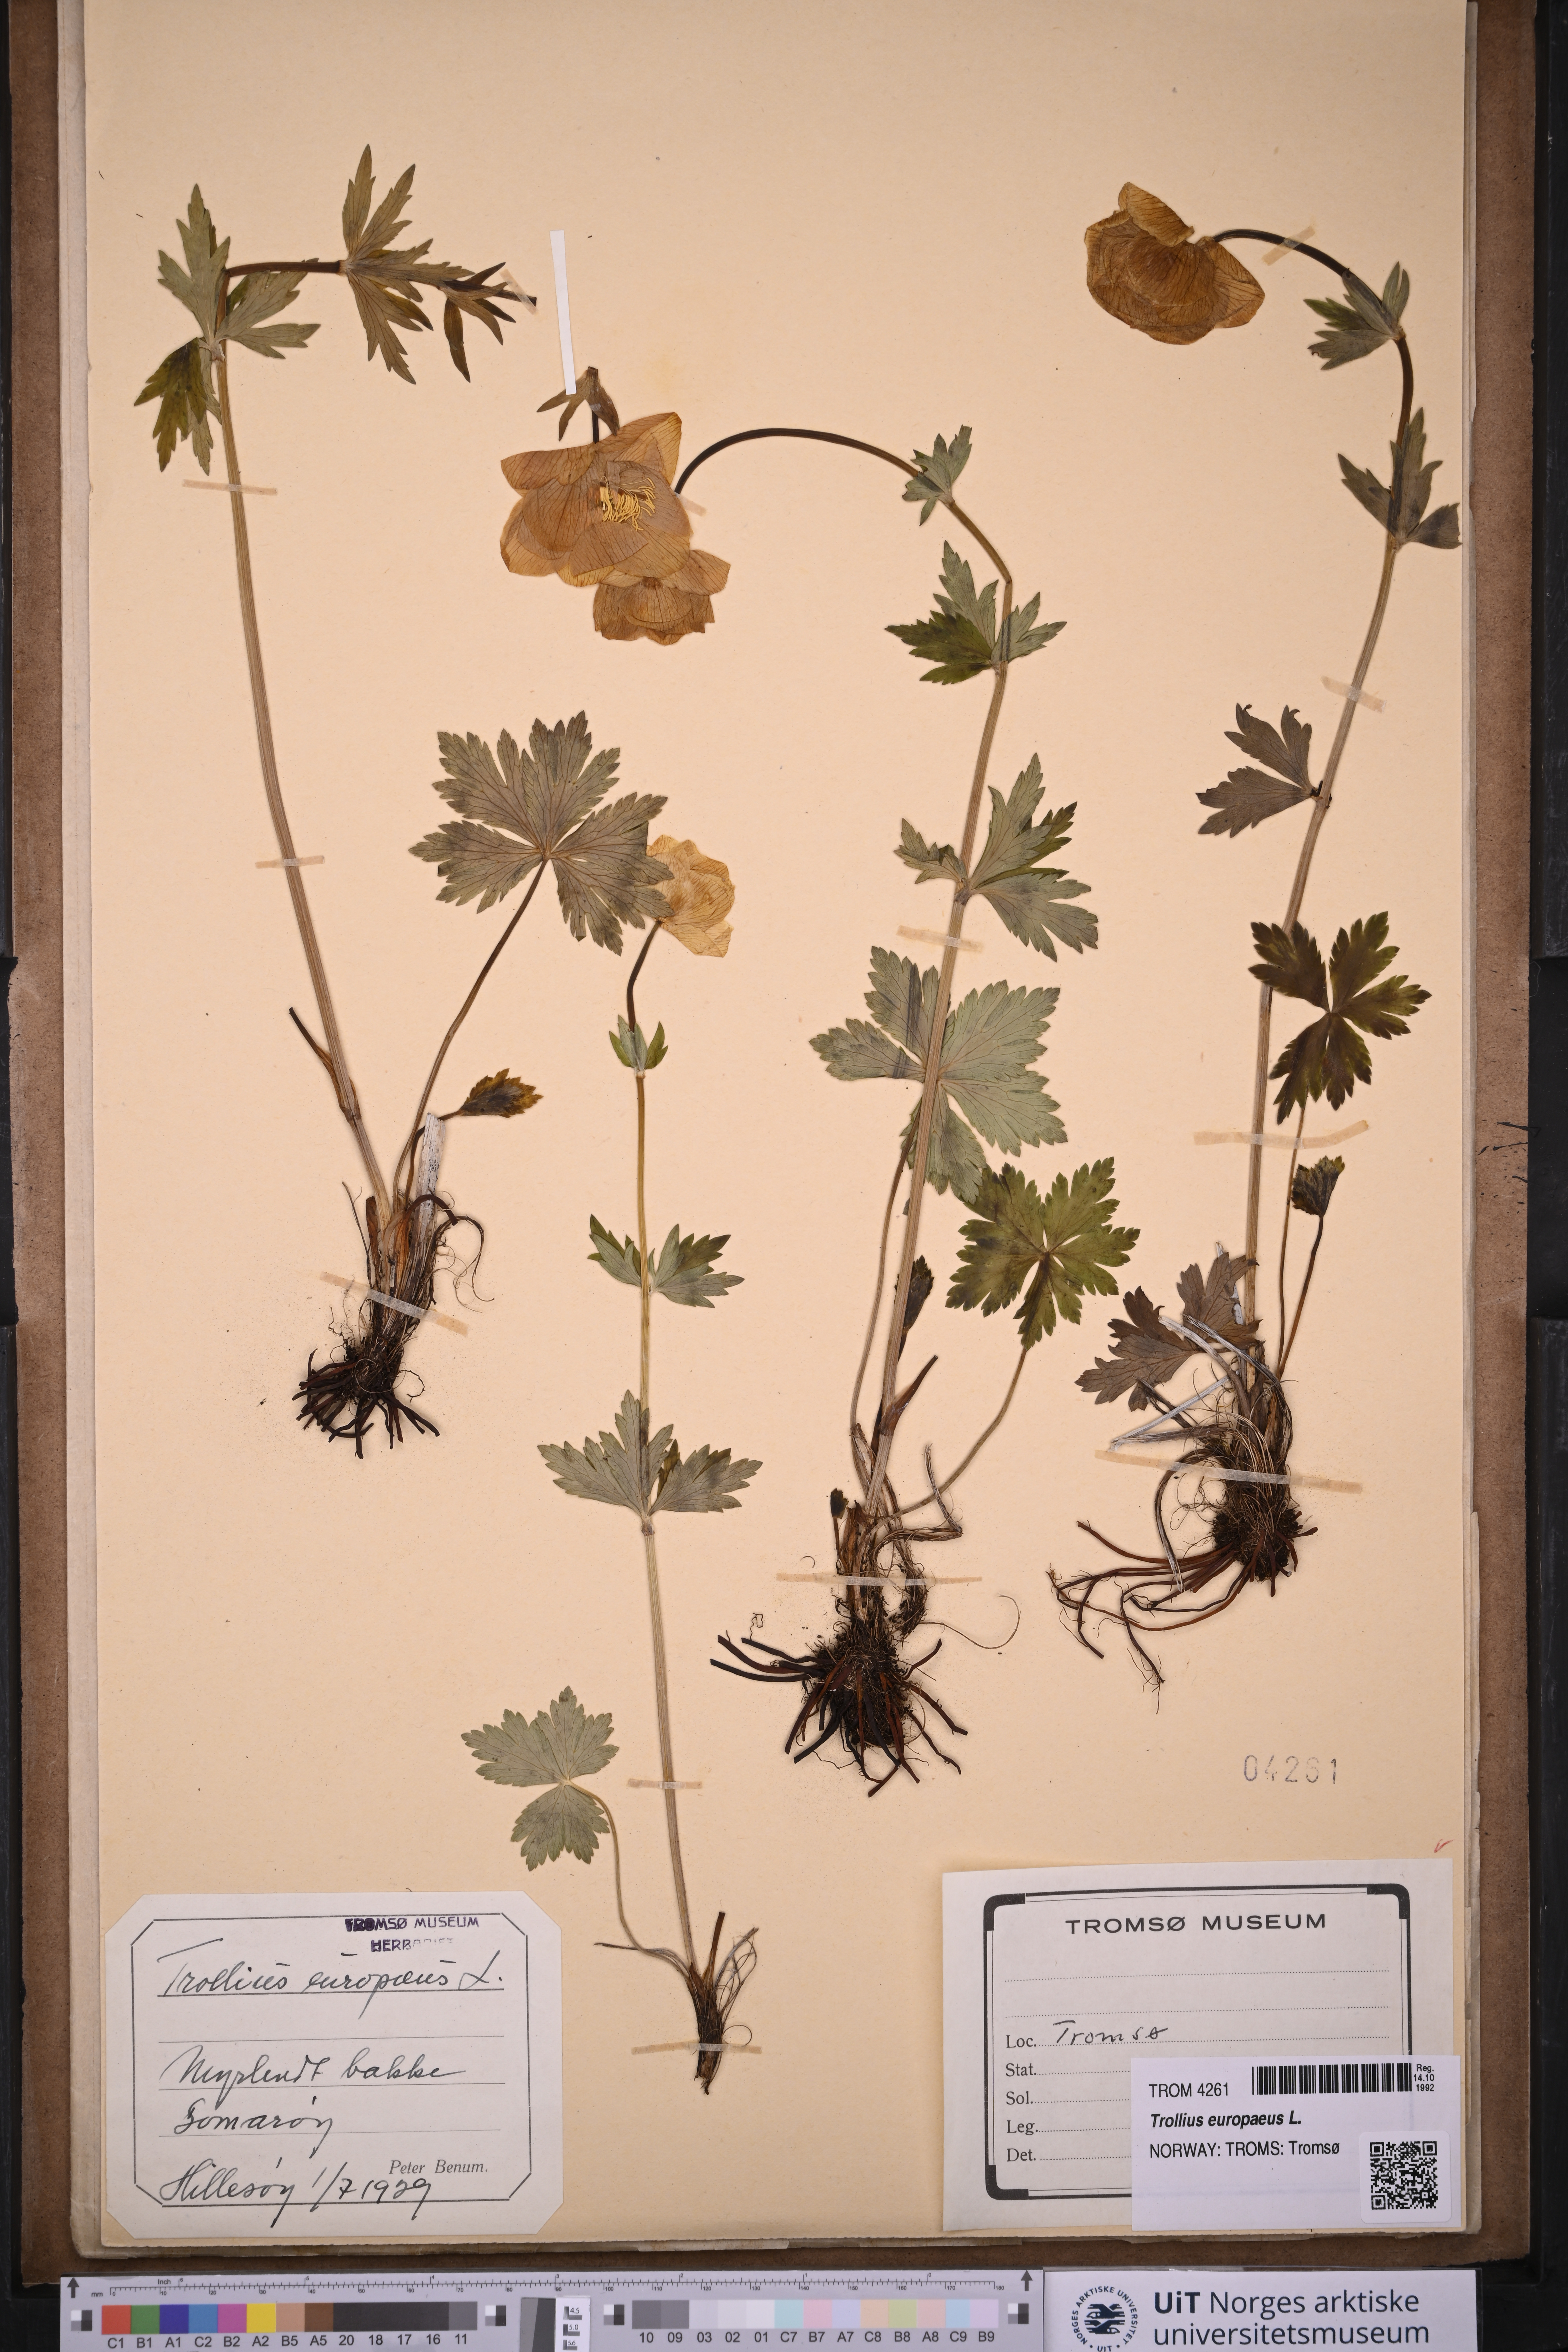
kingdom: Plantae
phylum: Tracheophyta
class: Magnoliopsida
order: Ranunculales
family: Ranunculaceae
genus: Trollius
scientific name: Trollius europaeus
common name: European globeflower
